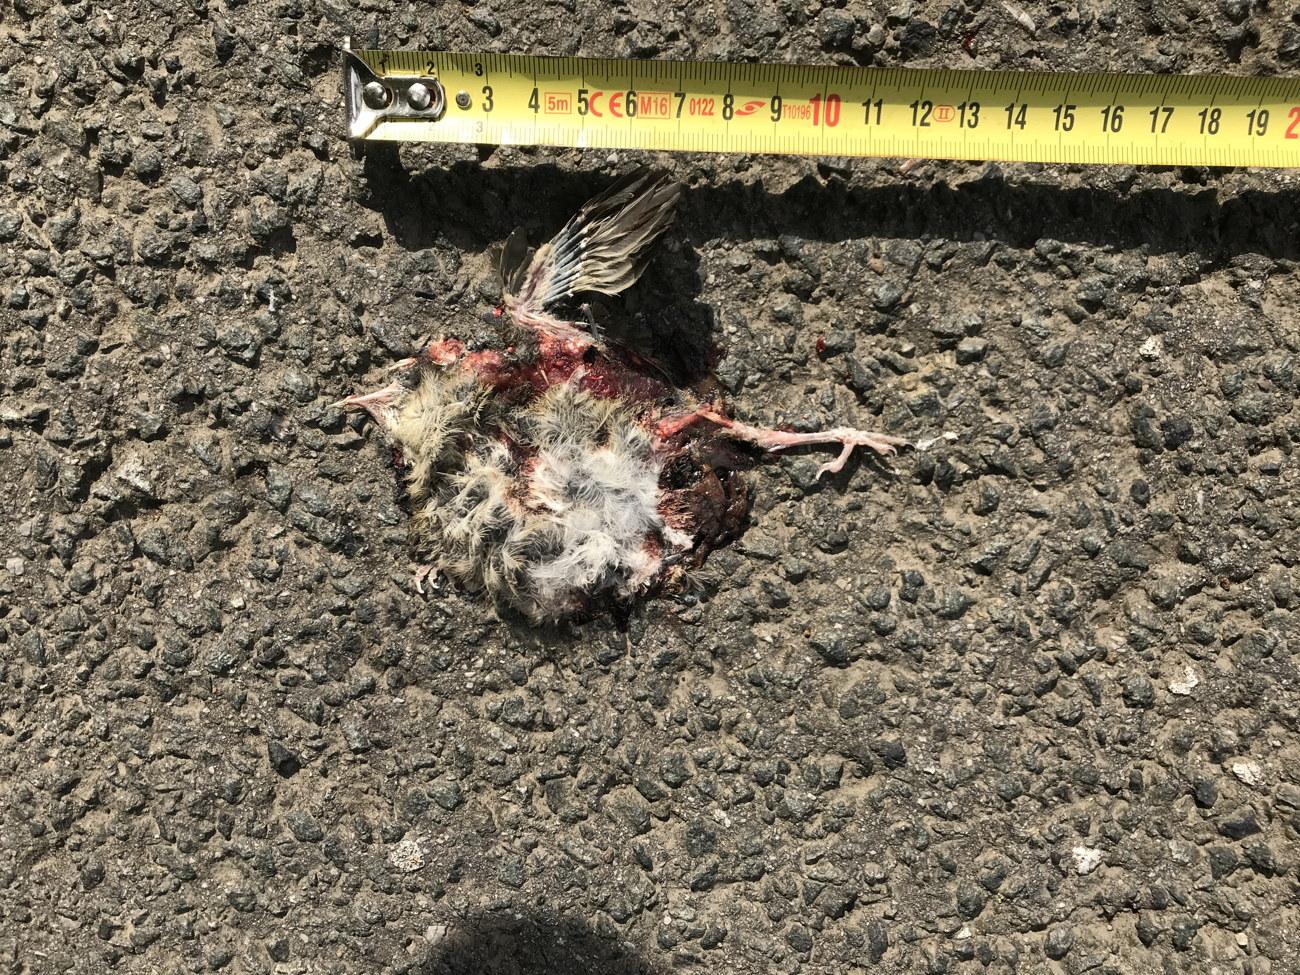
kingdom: Animalia
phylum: Chordata
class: Aves
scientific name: Aves
